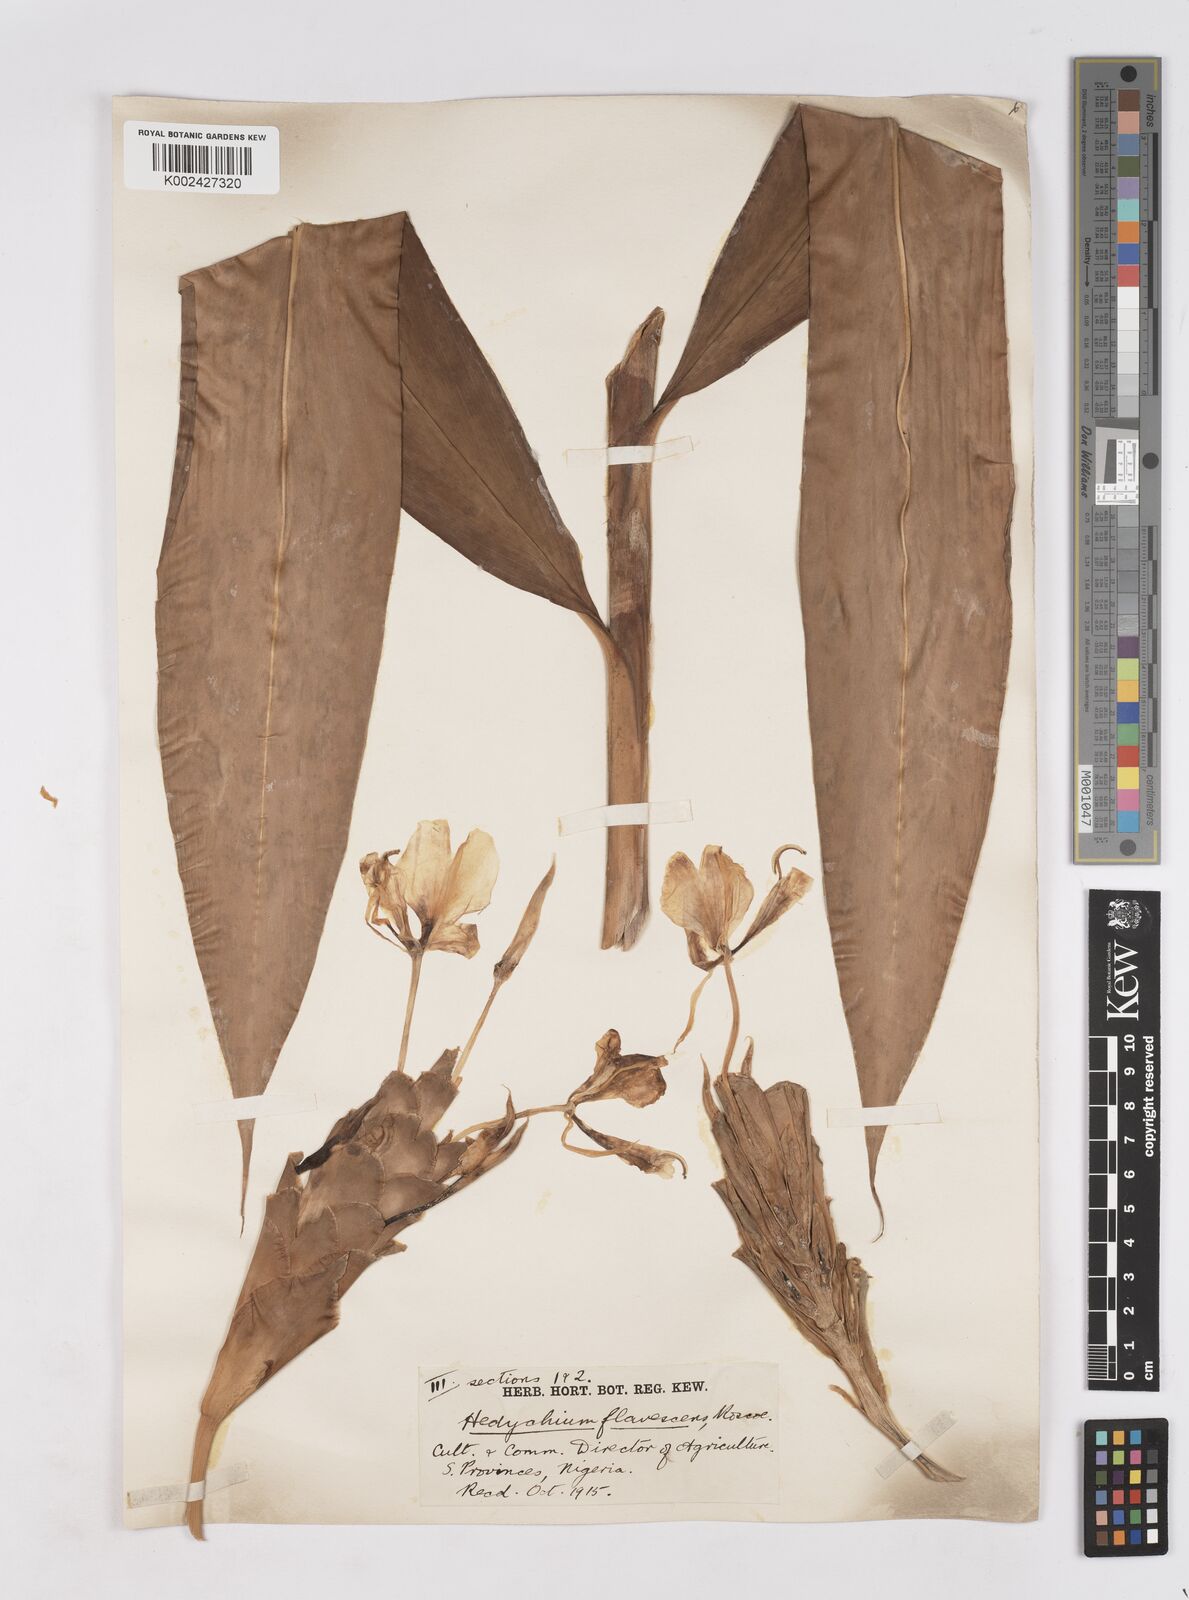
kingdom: Plantae
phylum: Tracheophyta
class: Liliopsida
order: Zingiberales
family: Zingiberaceae
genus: Hedychium
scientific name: Hedychium flavescens
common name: Yellow ginger
